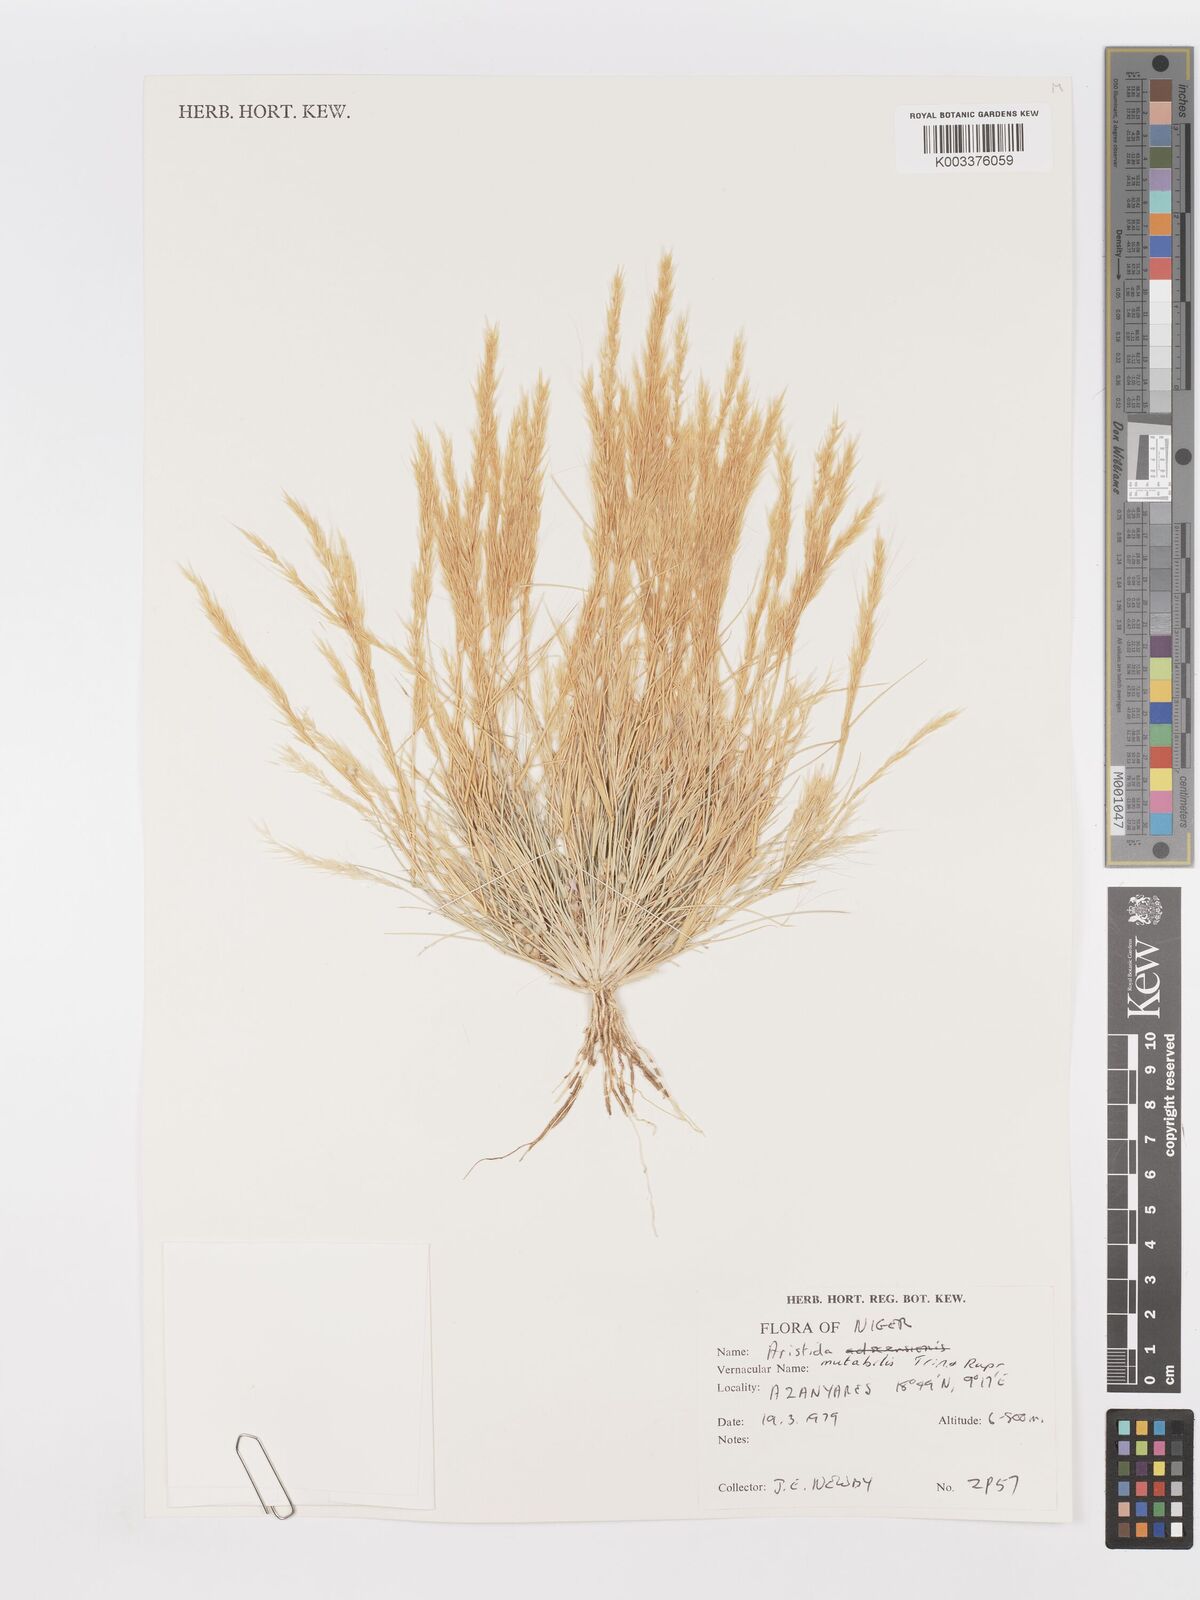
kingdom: Plantae
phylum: Tracheophyta
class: Liliopsida
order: Poales
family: Poaceae
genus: Aristida
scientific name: Aristida mutabilis
